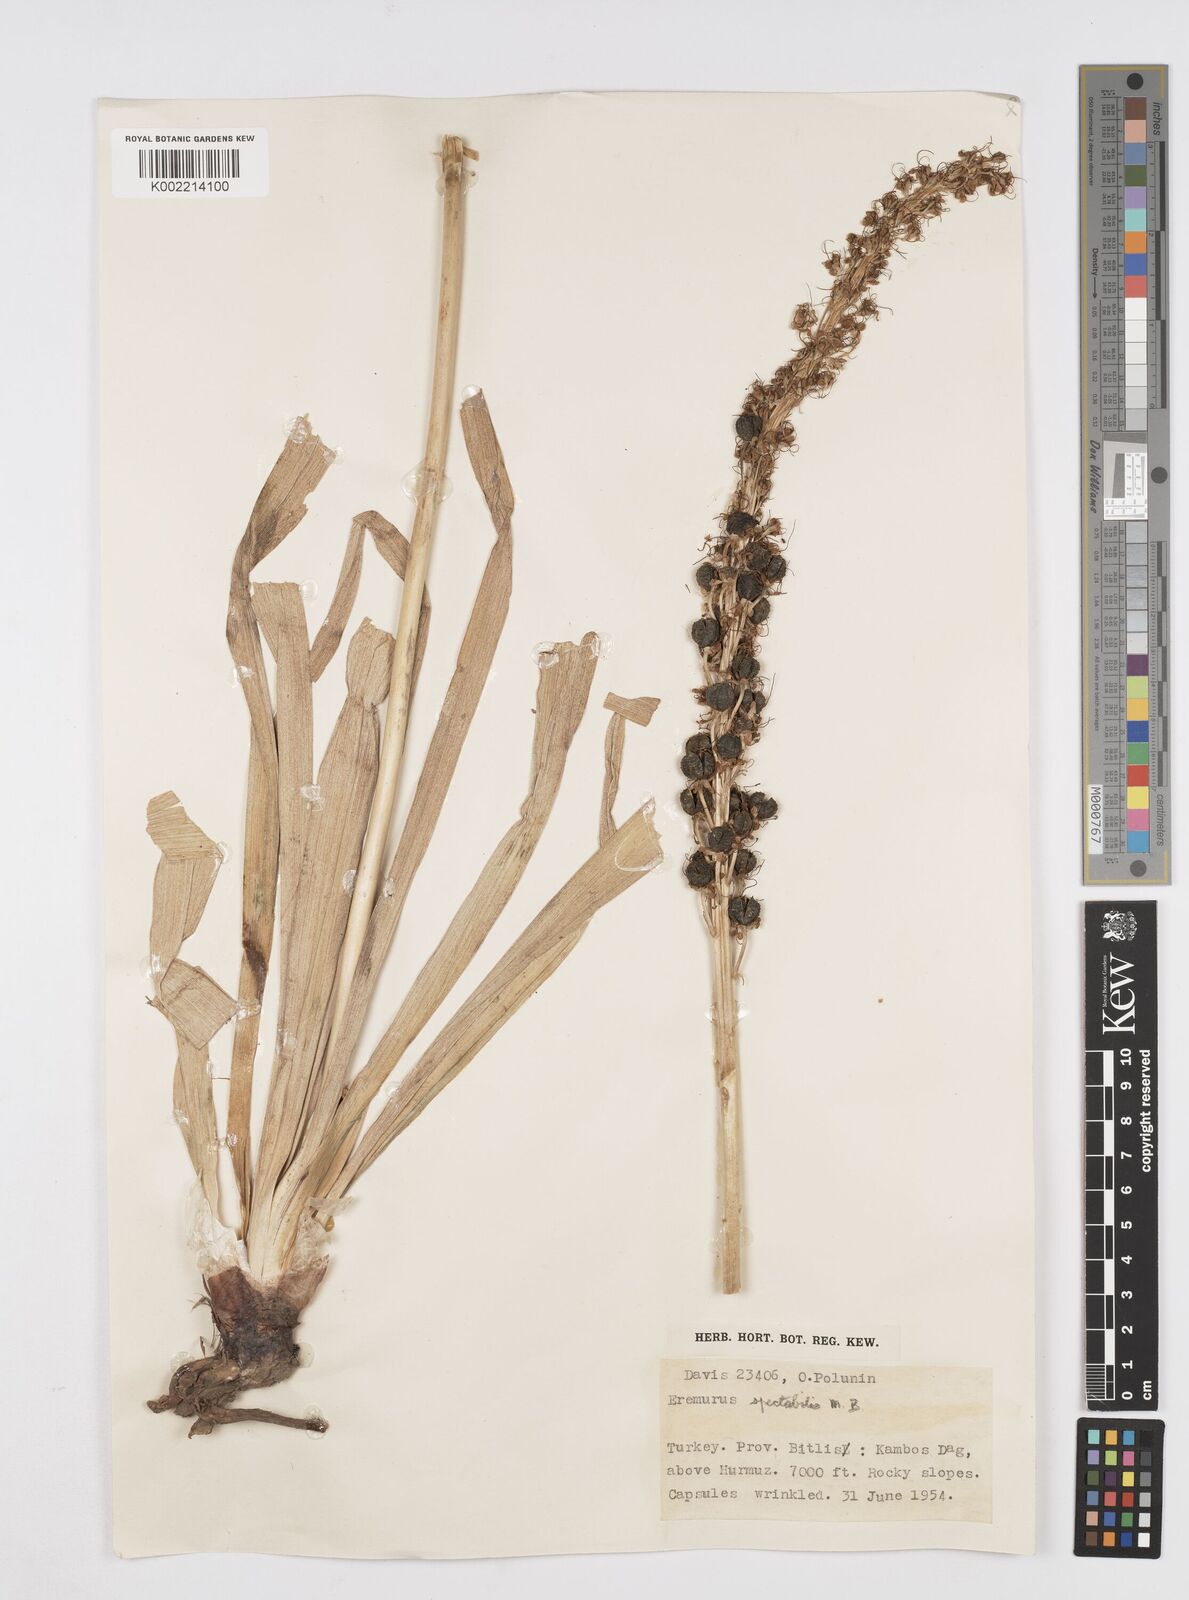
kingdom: Plantae
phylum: Tracheophyta
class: Liliopsida
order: Asparagales
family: Asphodelaceae
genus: Eremurus
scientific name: Eremurus spectabilis
